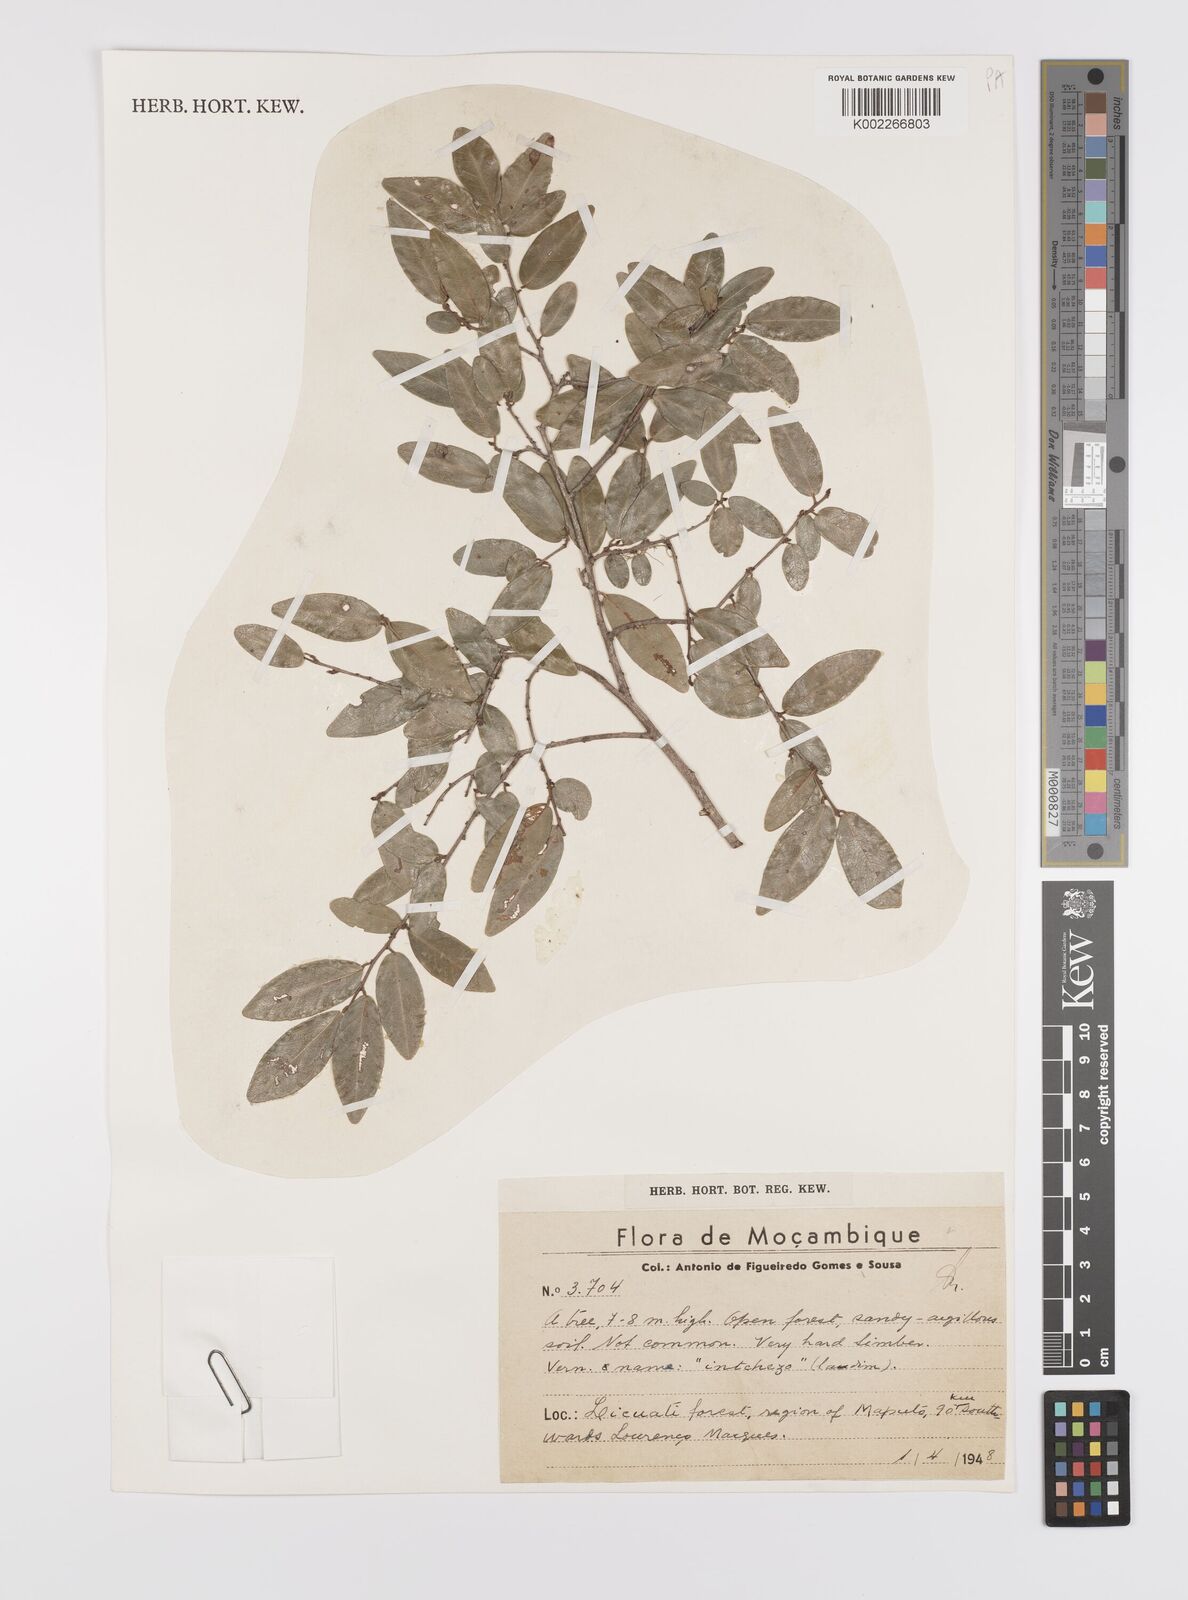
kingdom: Plantae
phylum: Tracheophyta
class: Magnoliopsida
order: Celastrales
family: Celastraceae
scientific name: Celastraceae
